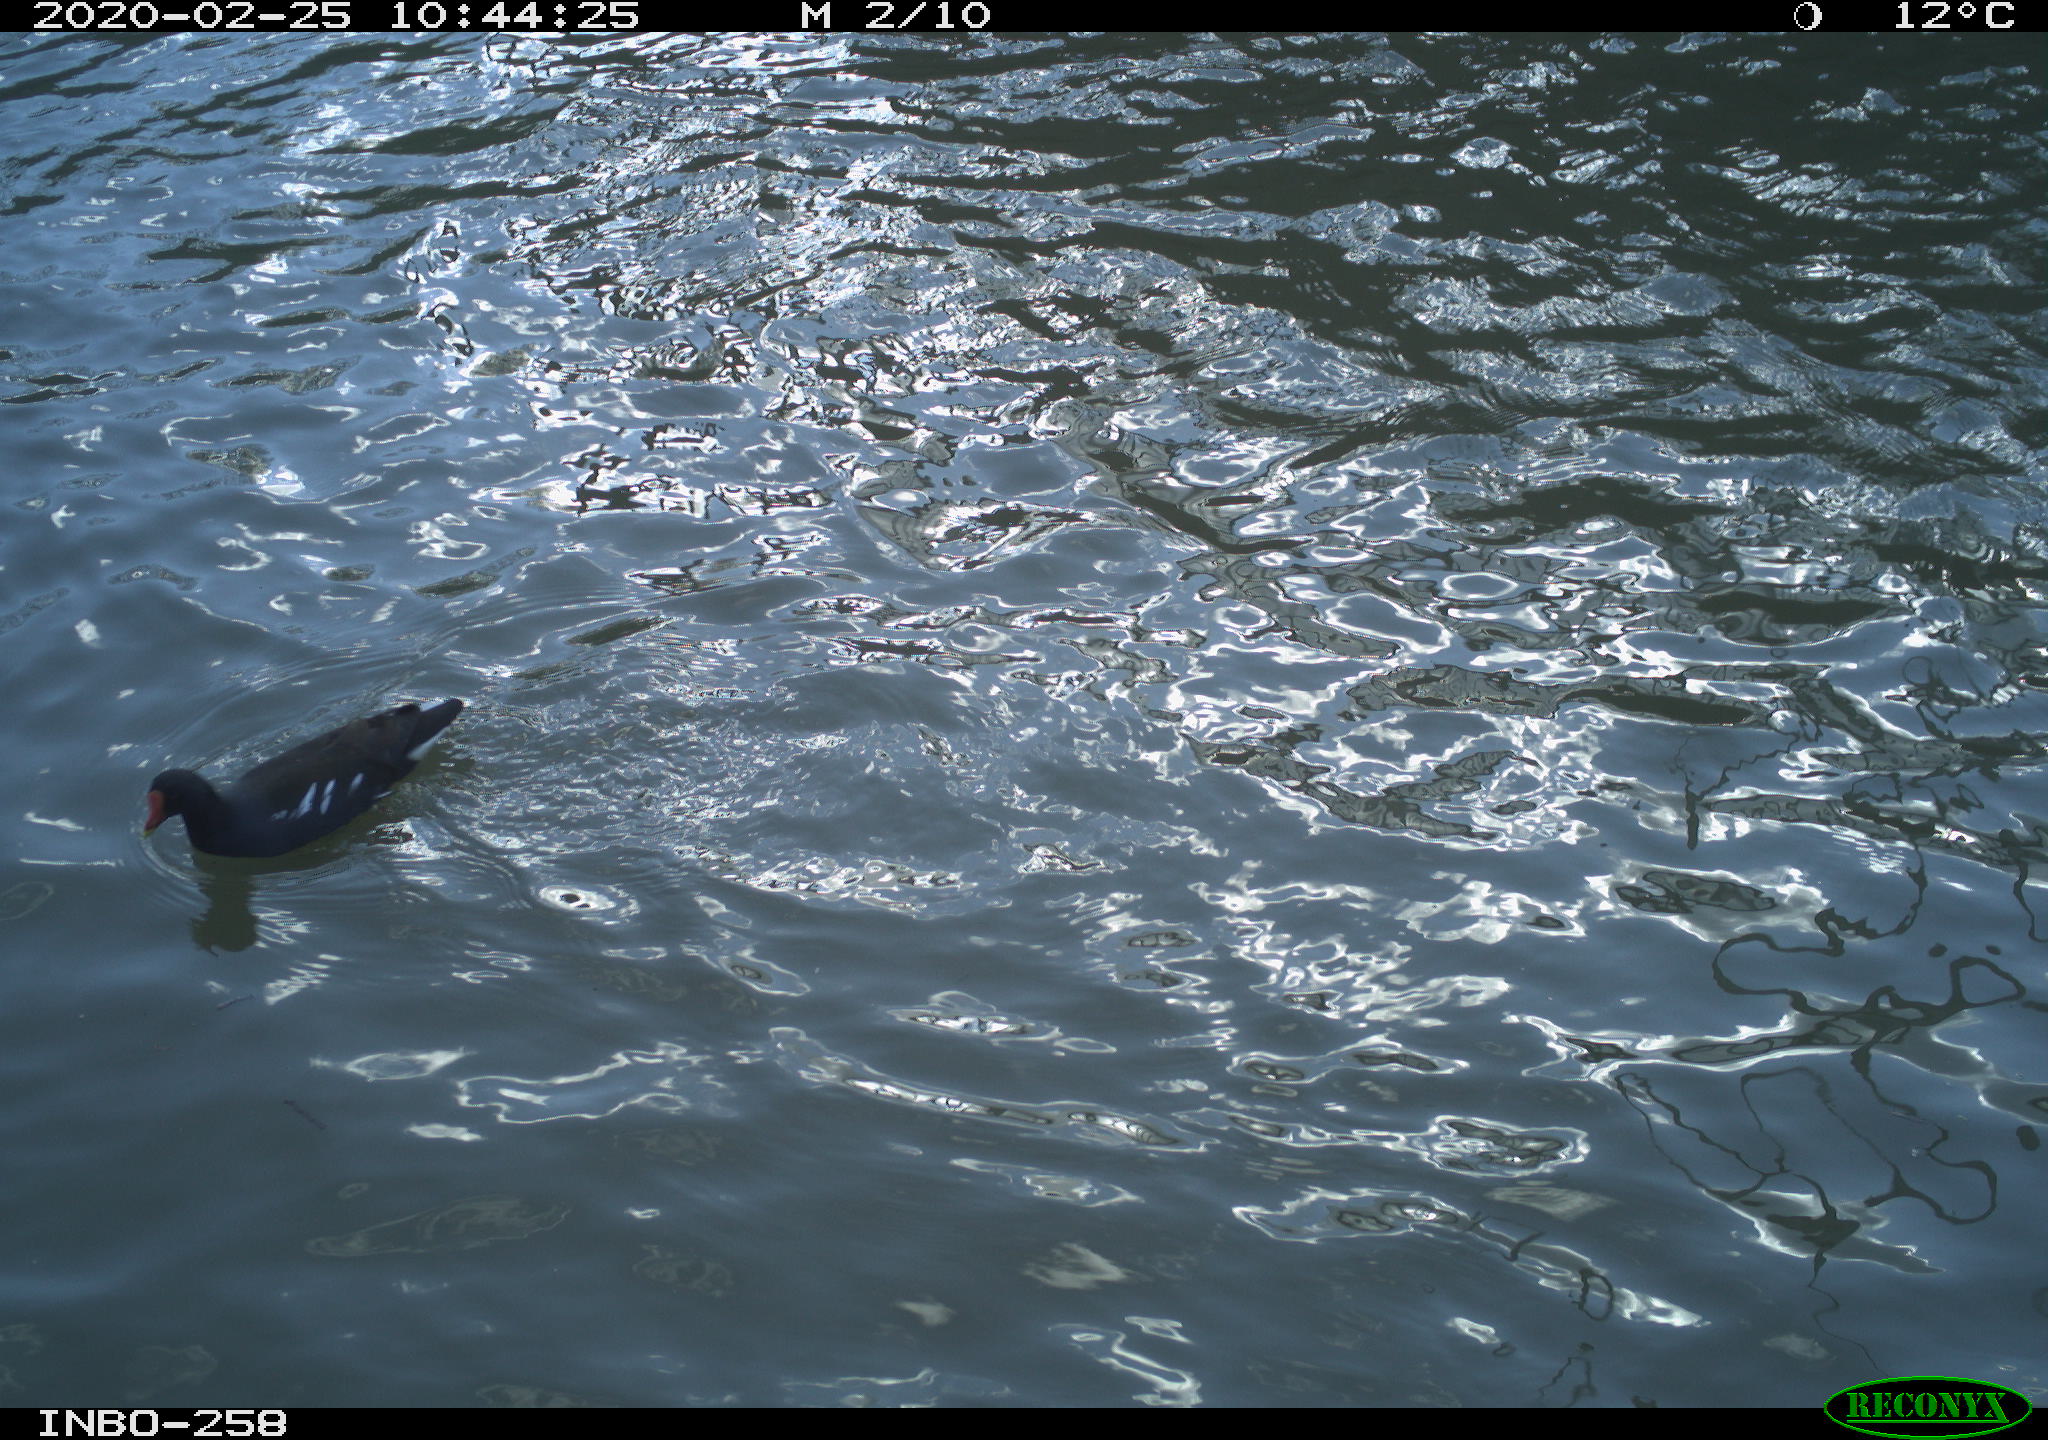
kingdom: Animalia
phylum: Chordata
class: Aves
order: Gruiformes
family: Rallidae
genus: Gallinula
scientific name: Gallinula chloropus
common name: Common moorhen
